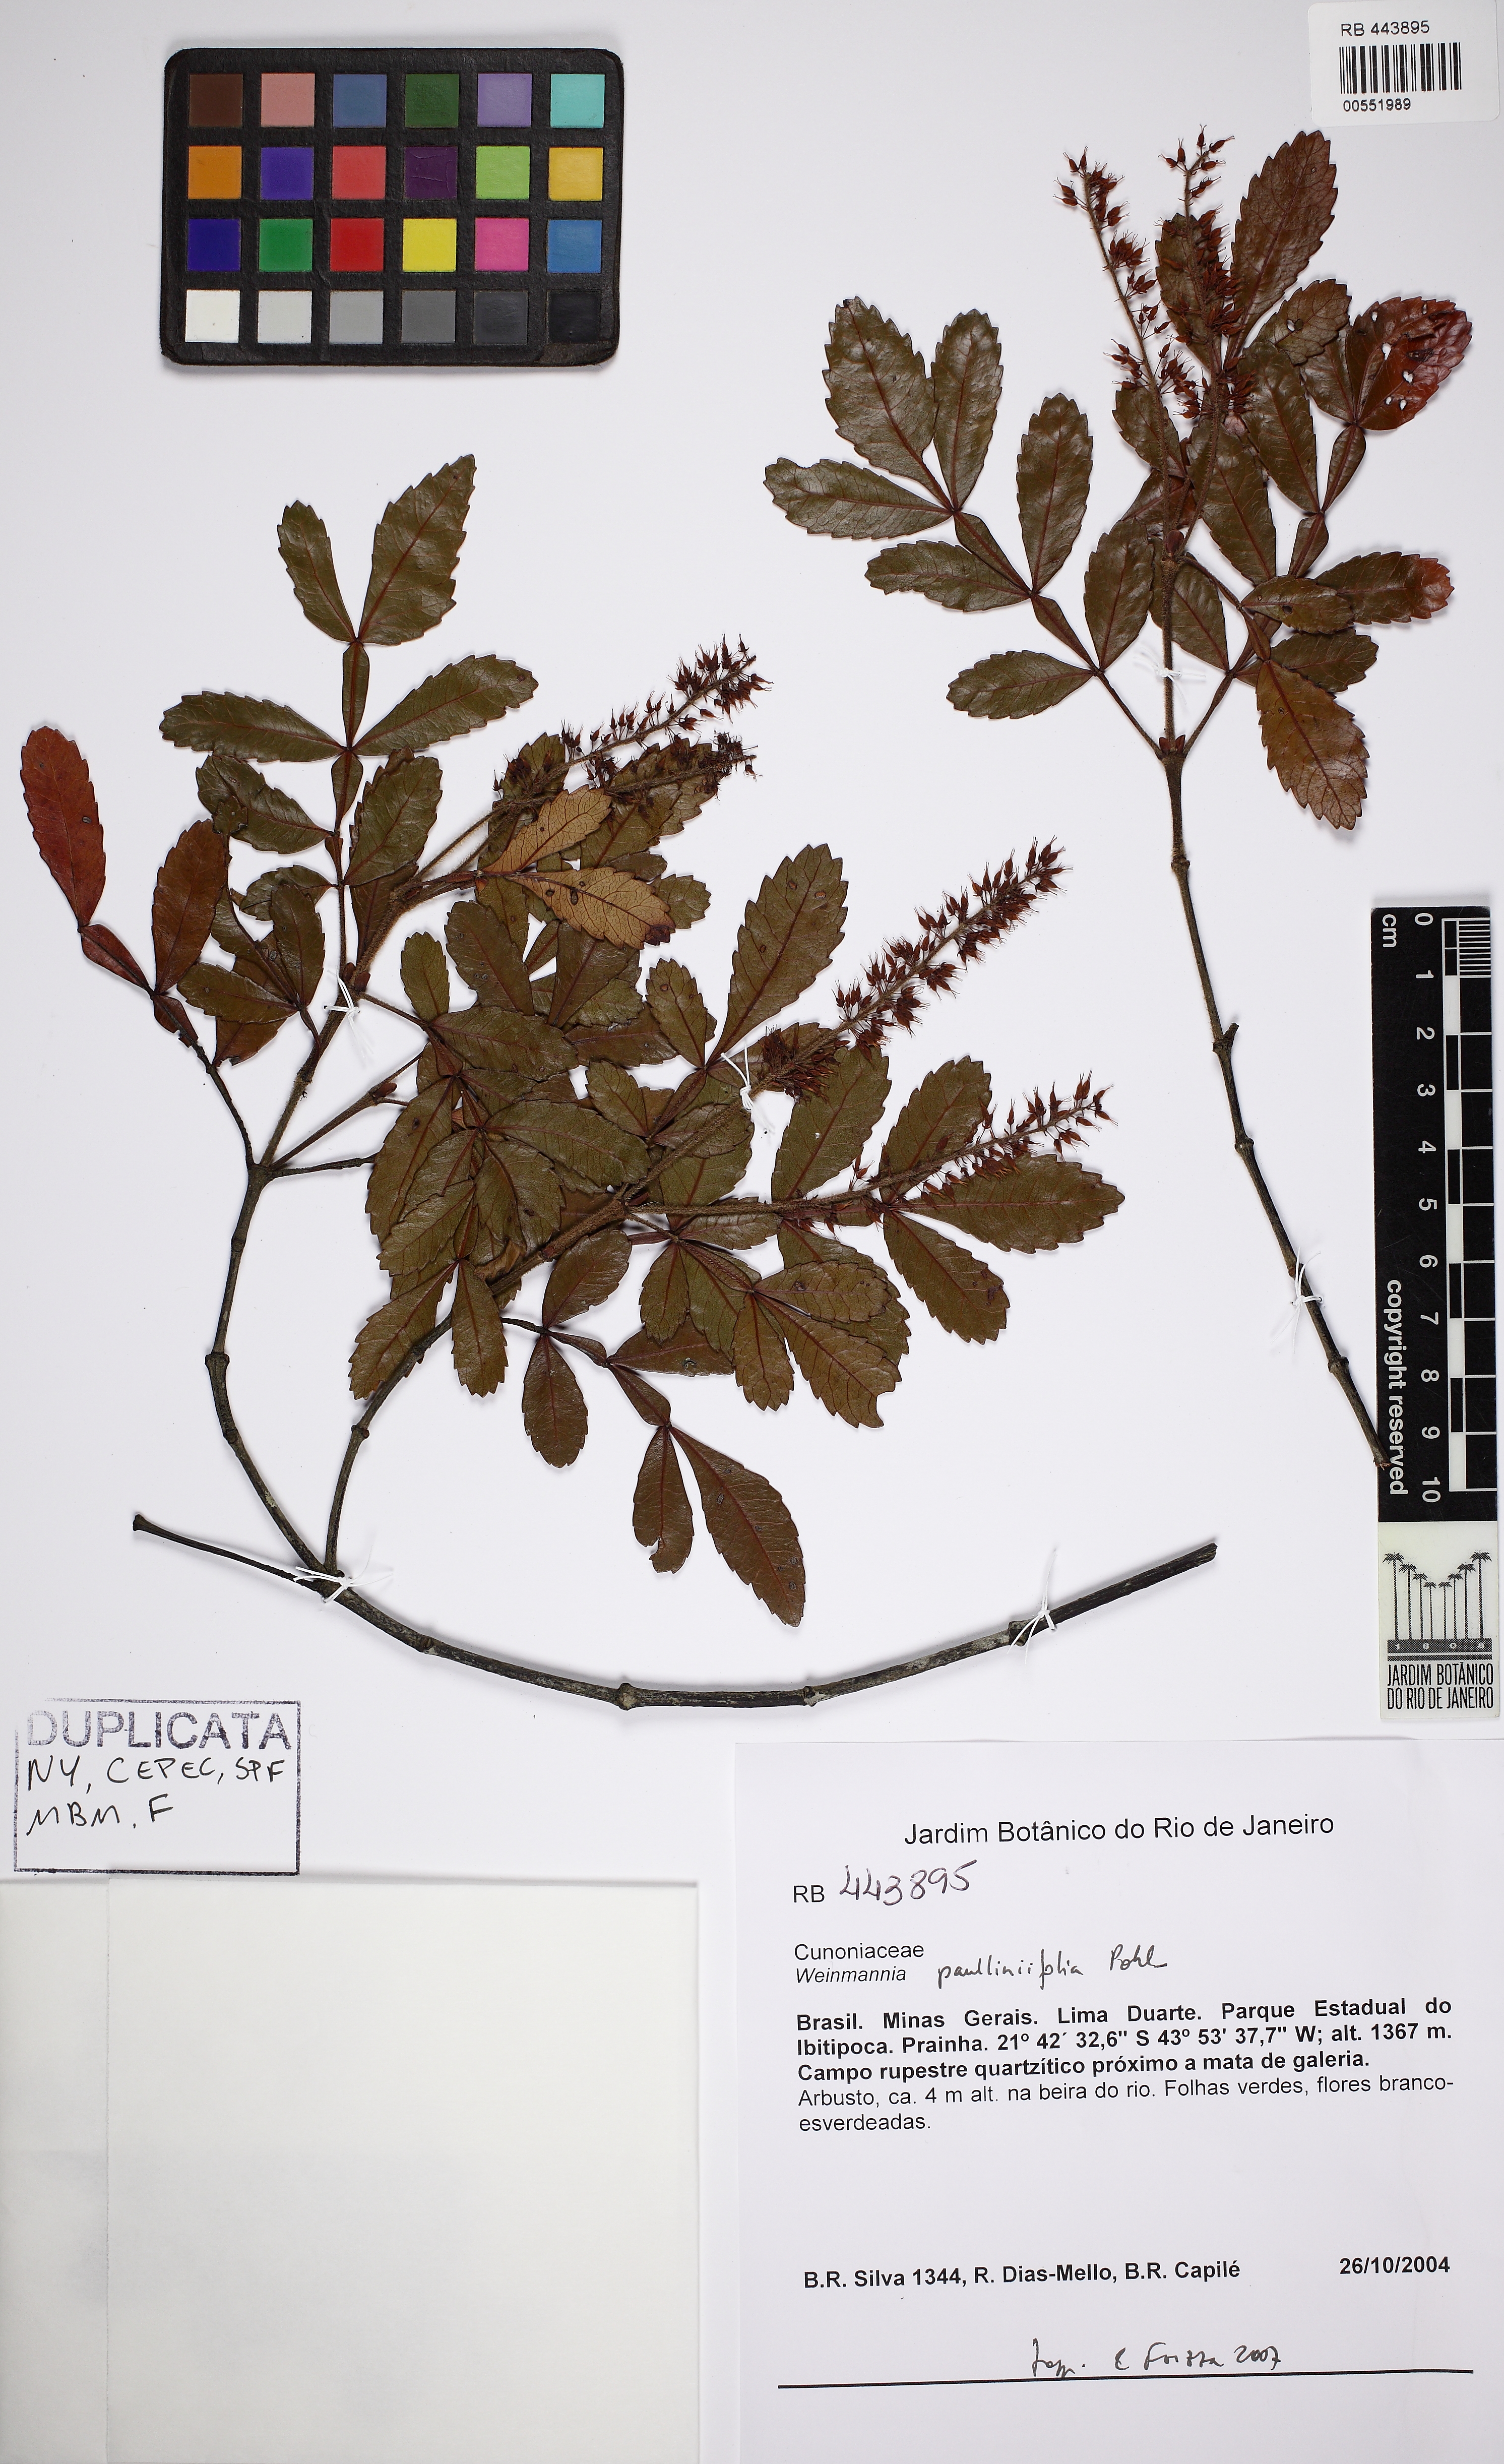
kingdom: Plantae
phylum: Tracheophyta
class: Magnoliopsida
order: Oxalidales
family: Cunoniaceae
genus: Weinmannia
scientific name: Weinmannia paullinifolia
